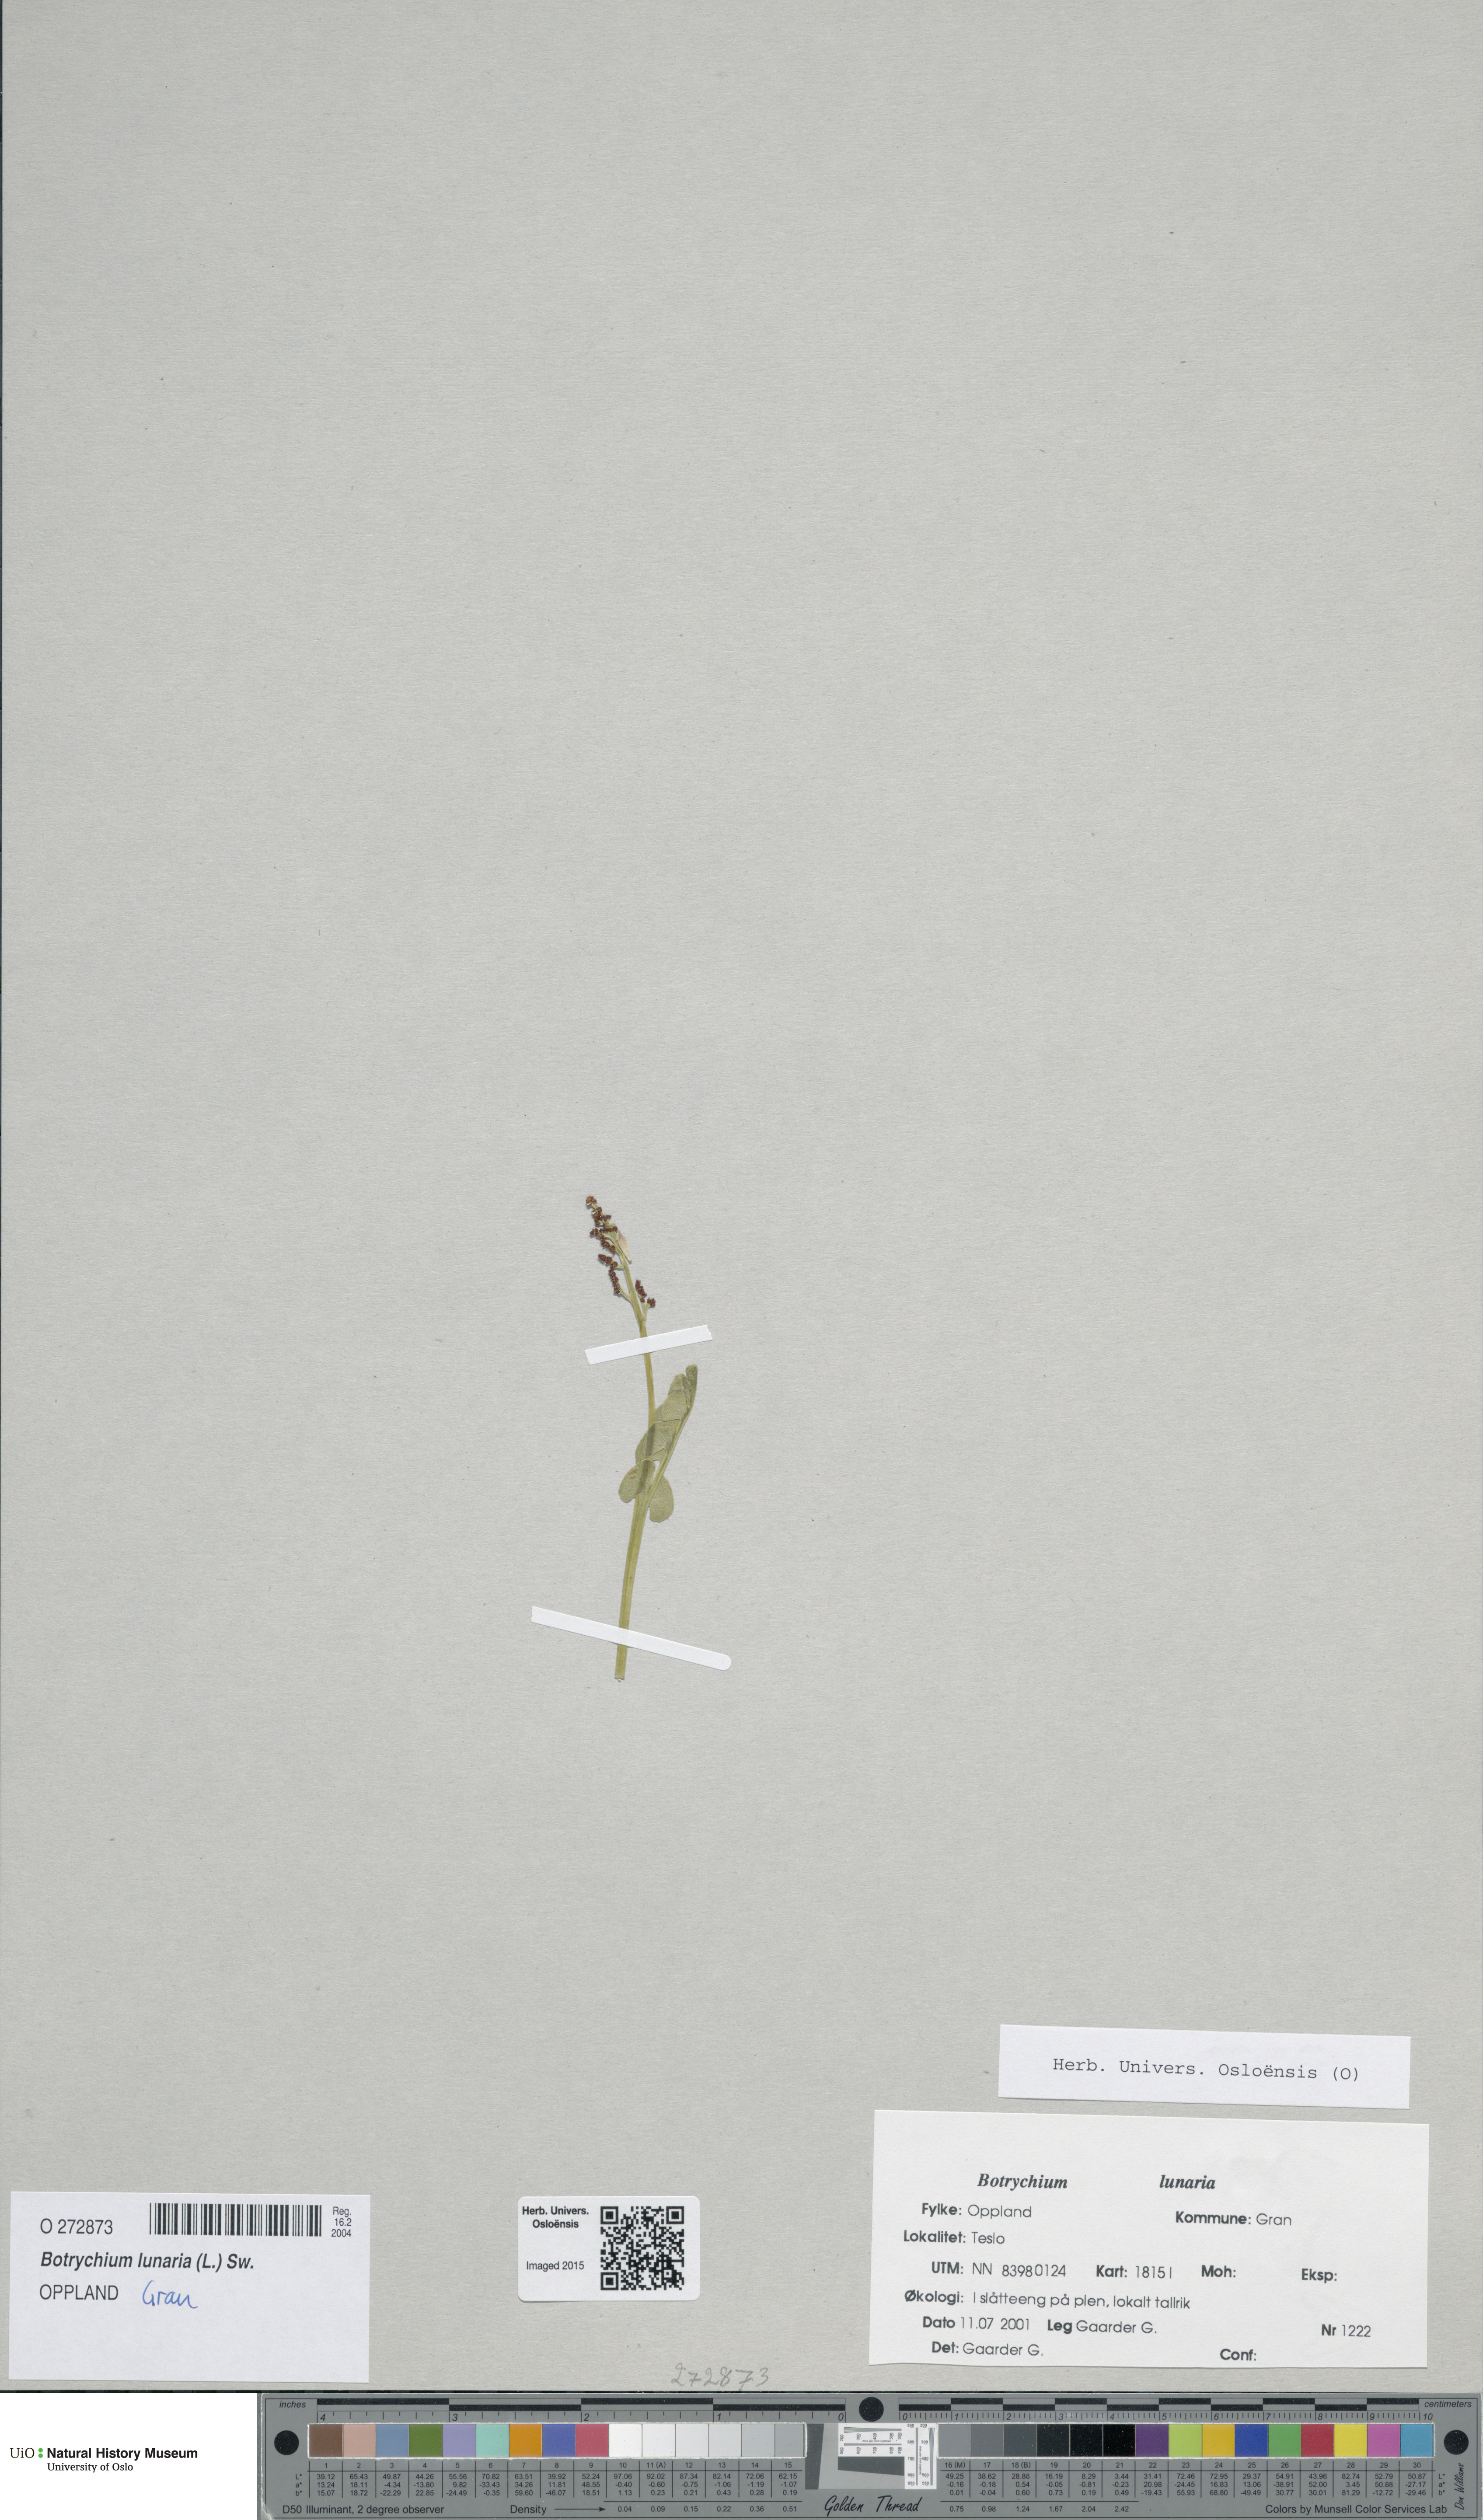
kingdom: Plantae
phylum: Tracheophyta
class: Polypodiopsida
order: Ophioglossales
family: Ophioglossaceae
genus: Botrychium
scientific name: Botrychium lunaria
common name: Moonwort
